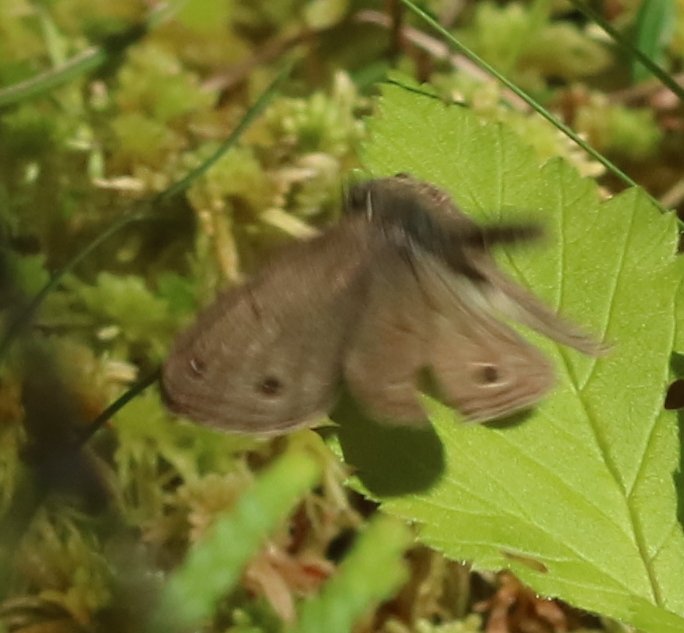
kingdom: Animalia
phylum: Arthropoda
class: Insecta
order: Lepidoptera
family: Nymphalidae
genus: Euptychia
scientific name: Euptychia cymela
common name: Little Wood Satyr
